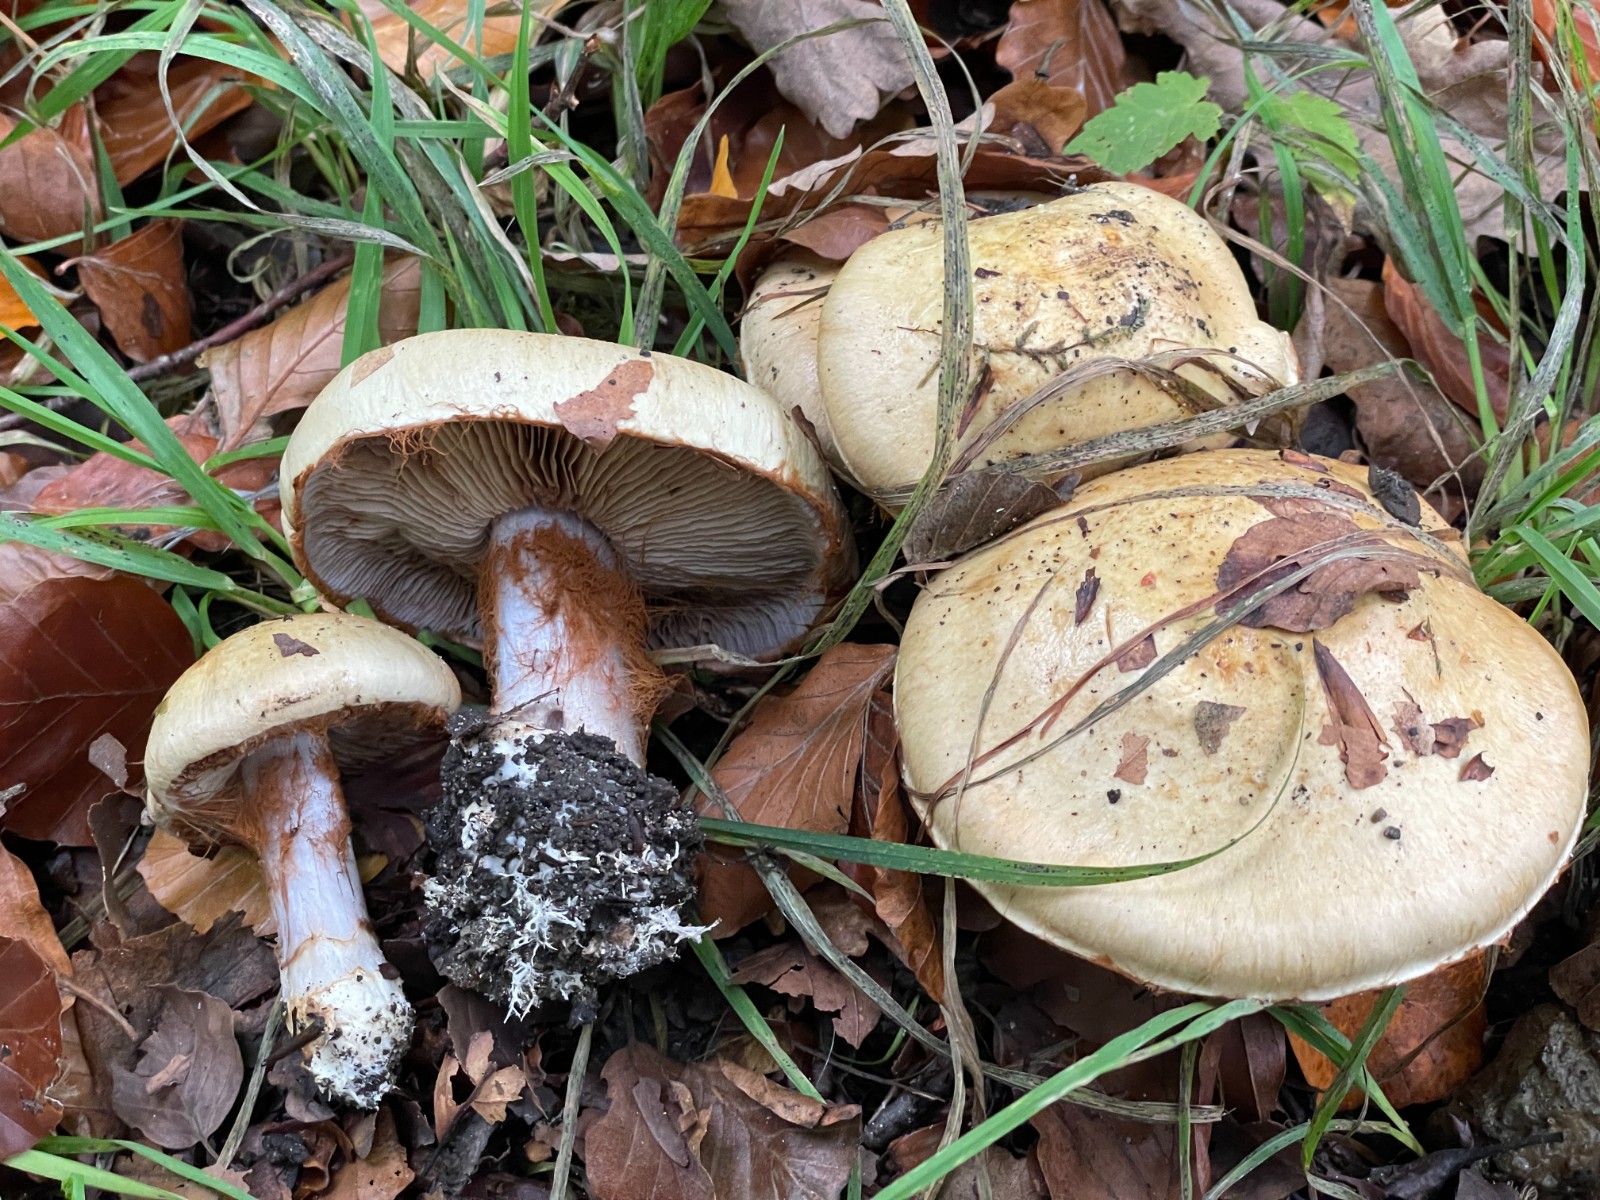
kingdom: Fungi
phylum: Basidiomycota
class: Agaricomycetes
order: Agaricales
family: Cortinariaceae
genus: Cortinarius
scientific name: Cortinarius anserinus
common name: bøge-slørhat
